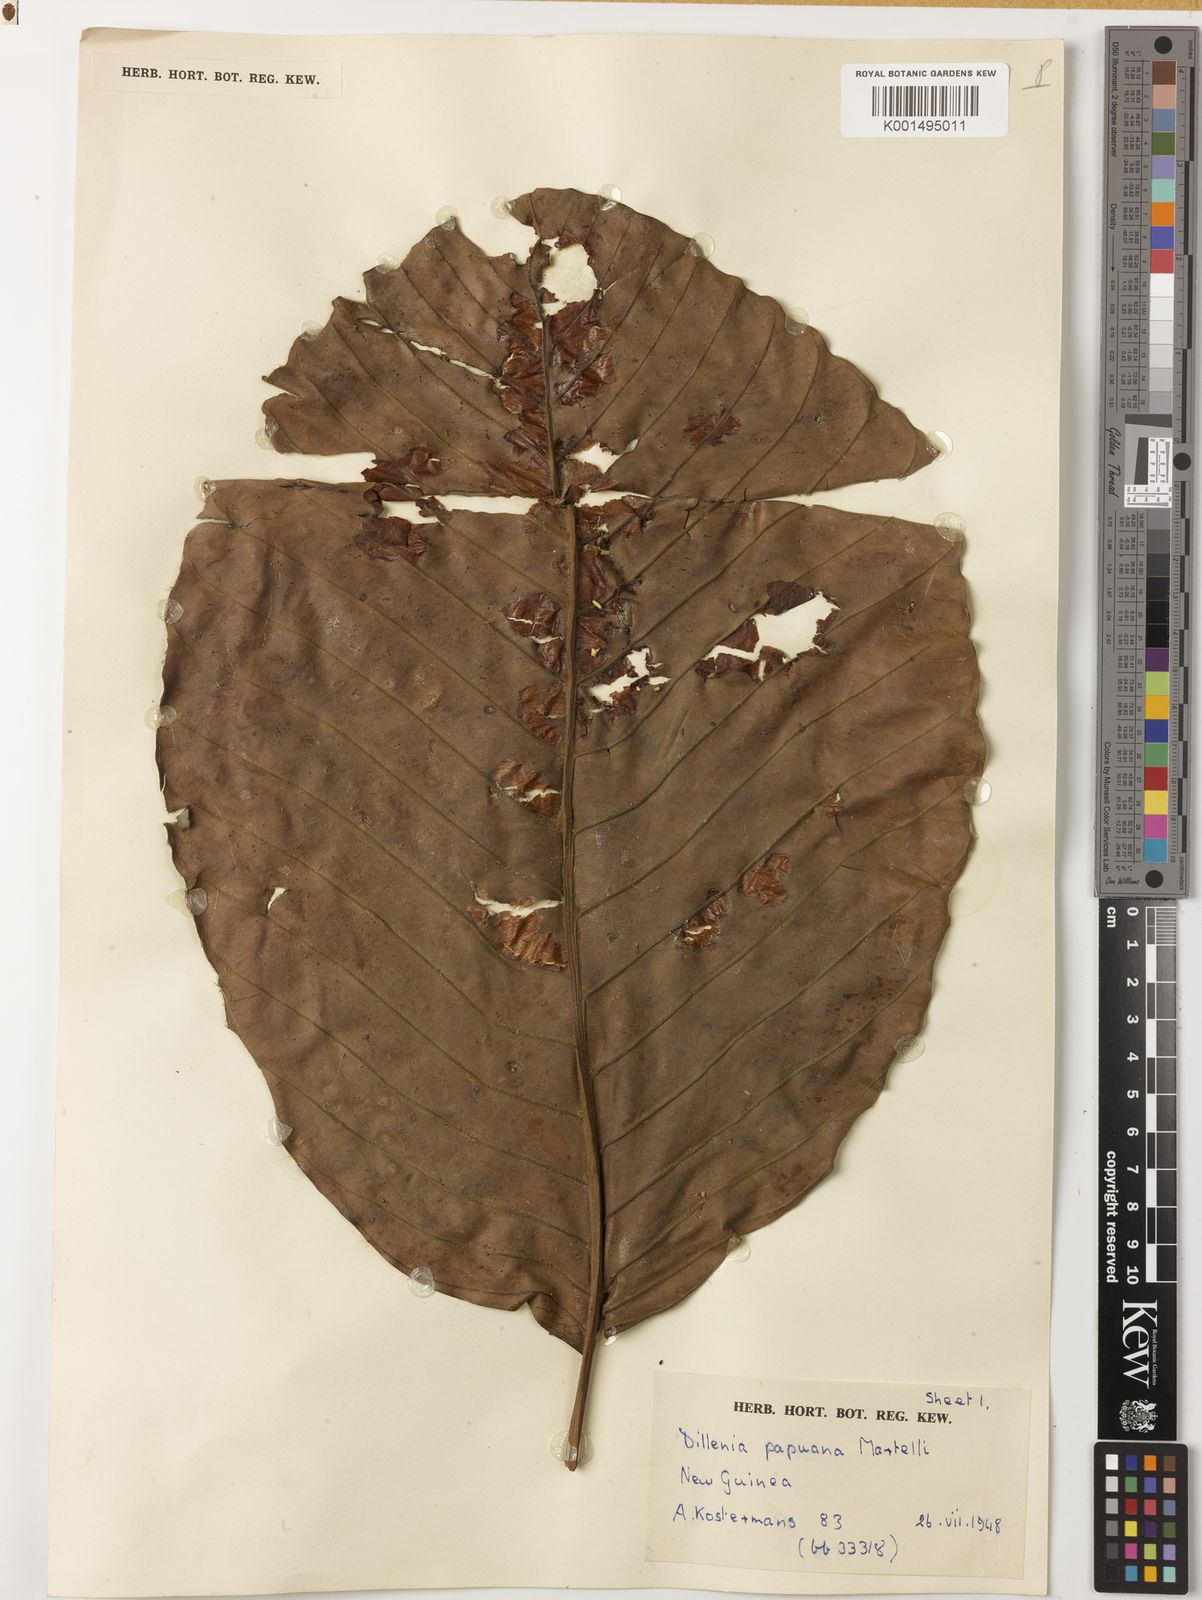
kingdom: Plantae
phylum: Tracheophyta
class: Magnoliopsida
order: Dilleniales
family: Dilleniaceae
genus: Dillenia
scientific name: Dillenia papuana
